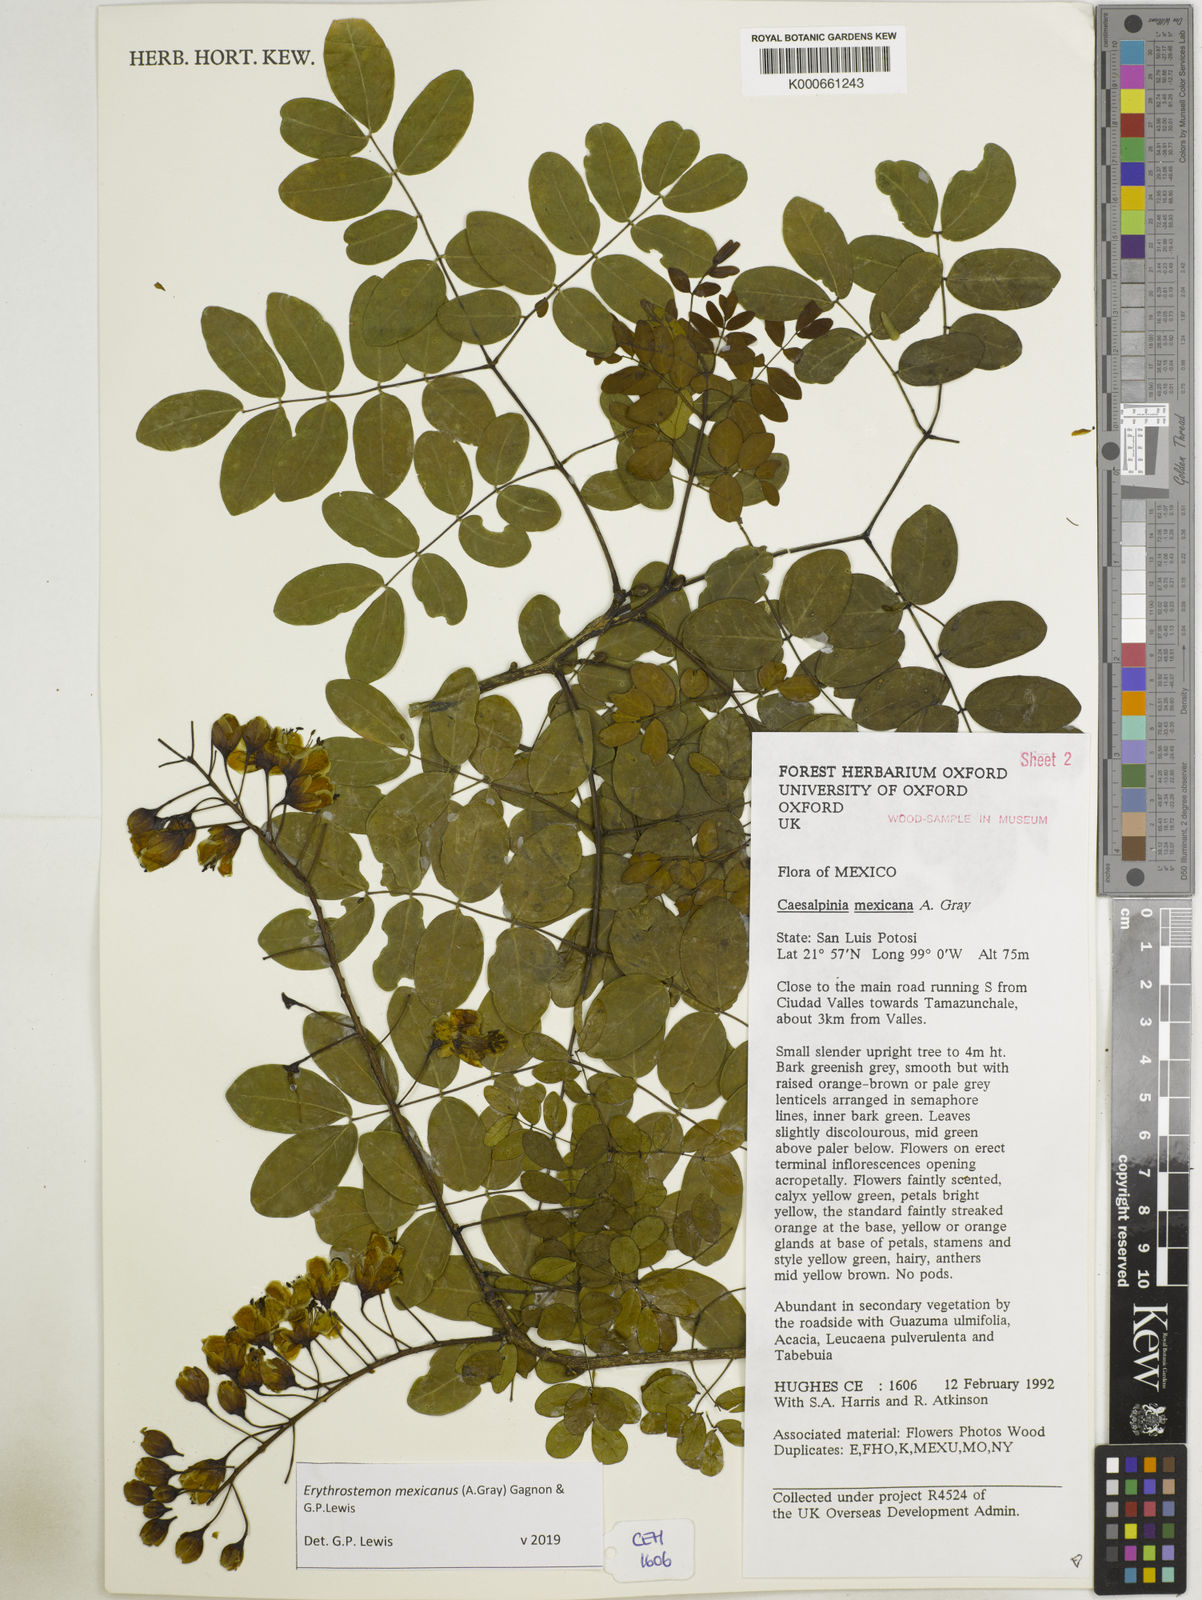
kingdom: Plantae
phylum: Tracheophyta
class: Magnoliopsida
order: Fabales
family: Fabaceae
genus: Erythrostemon
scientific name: Erythrostemon mexicanus
